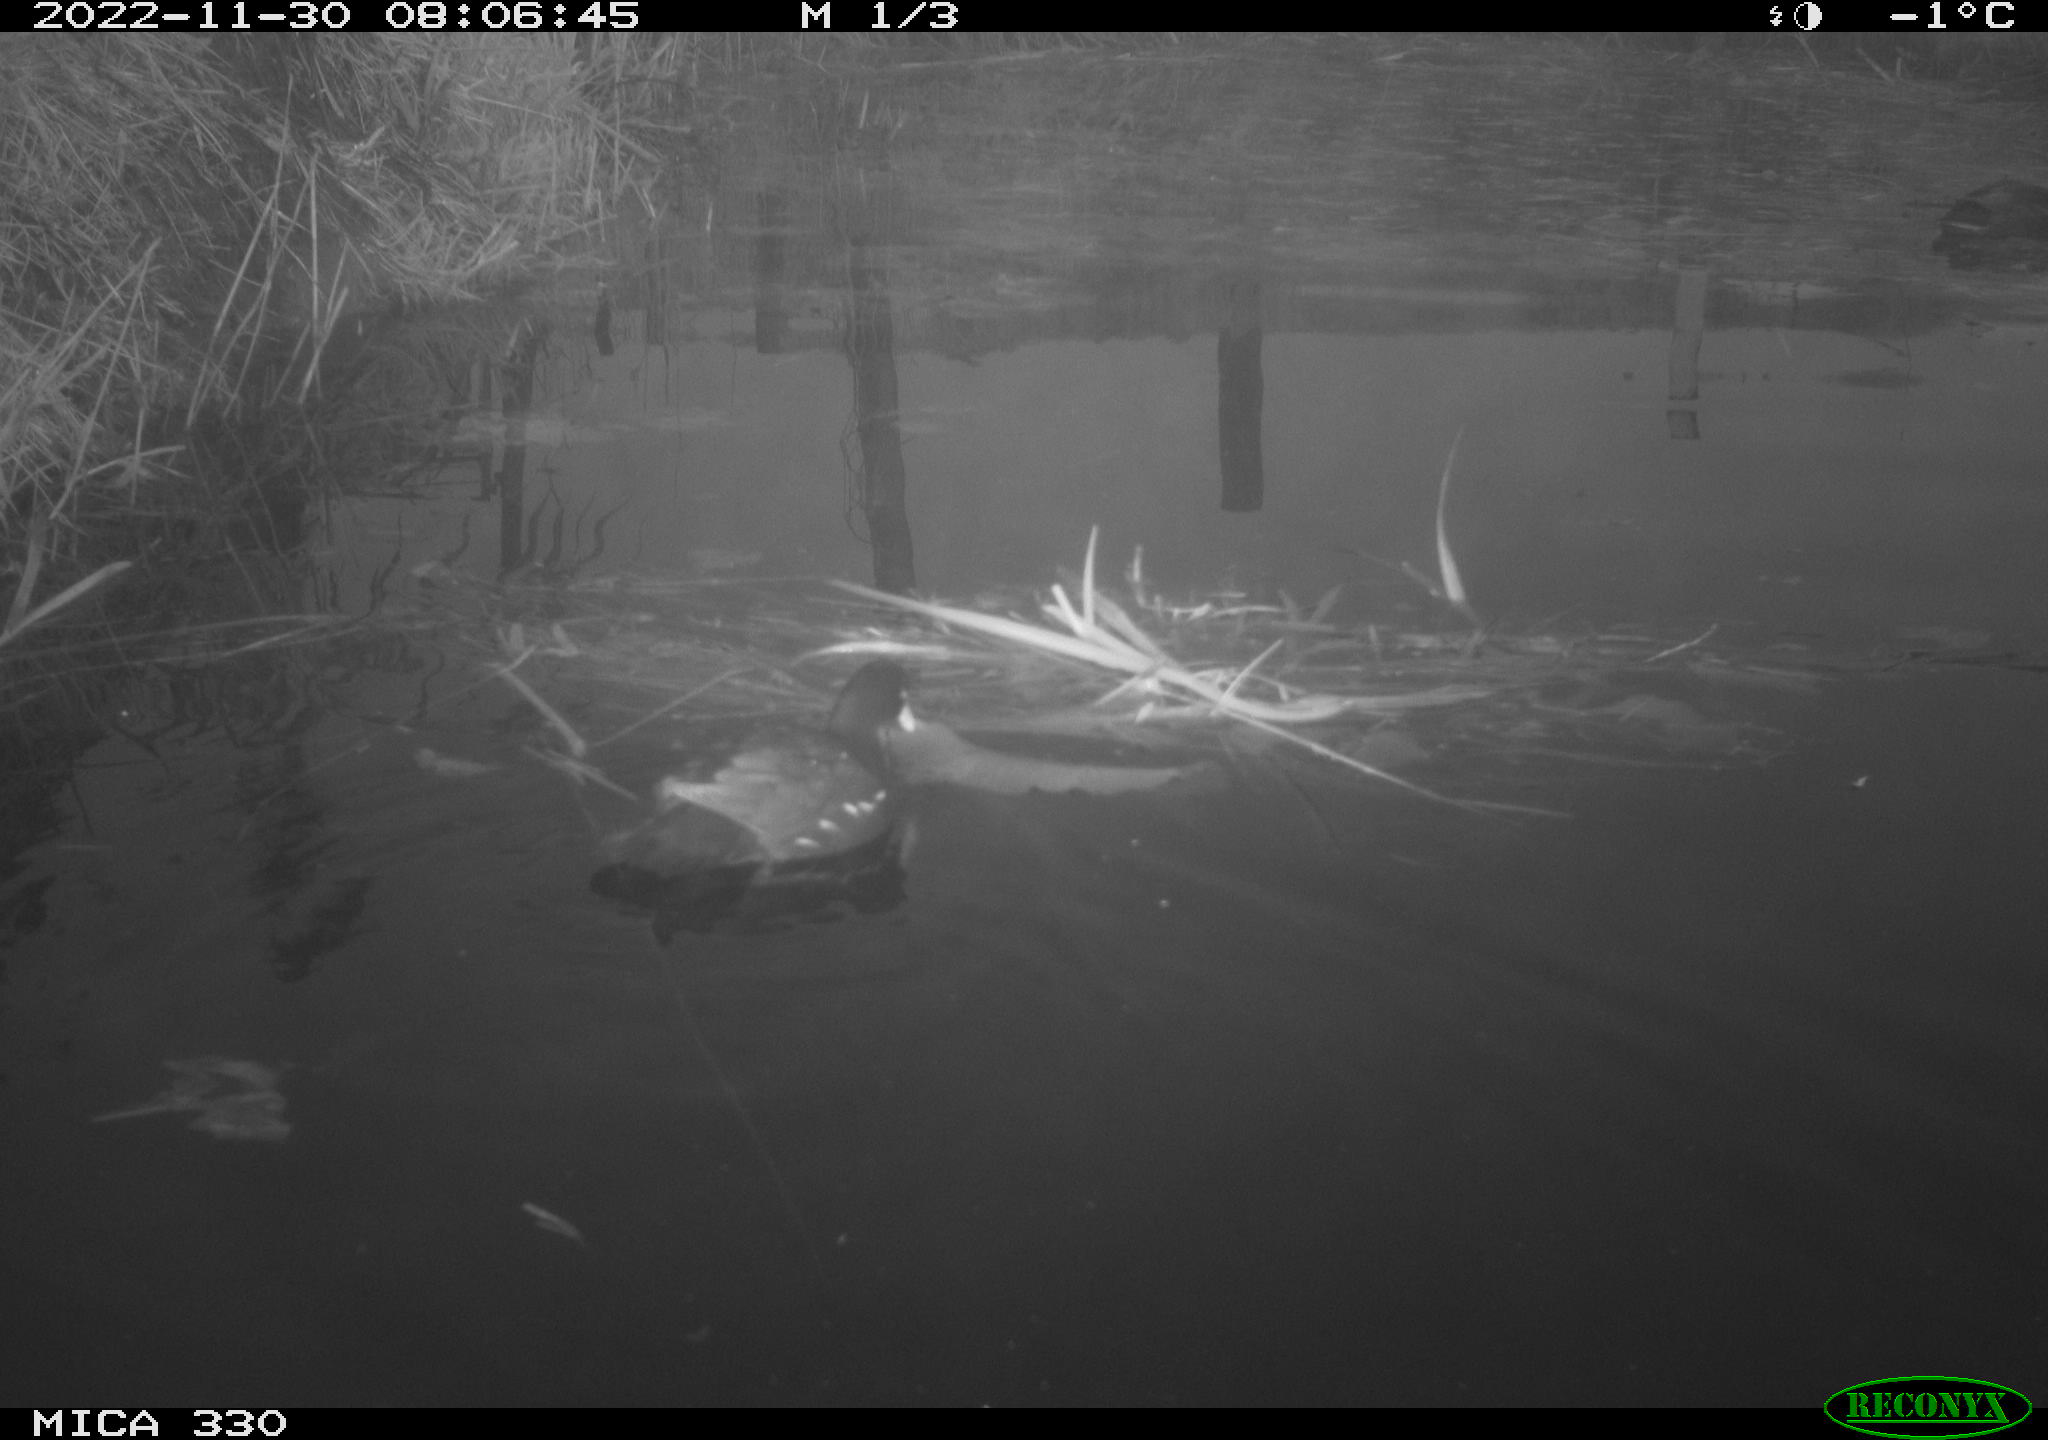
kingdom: Animalia
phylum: Chordata
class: Aves
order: Gruiformes
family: Rallidae
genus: Gallinula
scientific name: Gallinula chloropus
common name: Common moorhen
